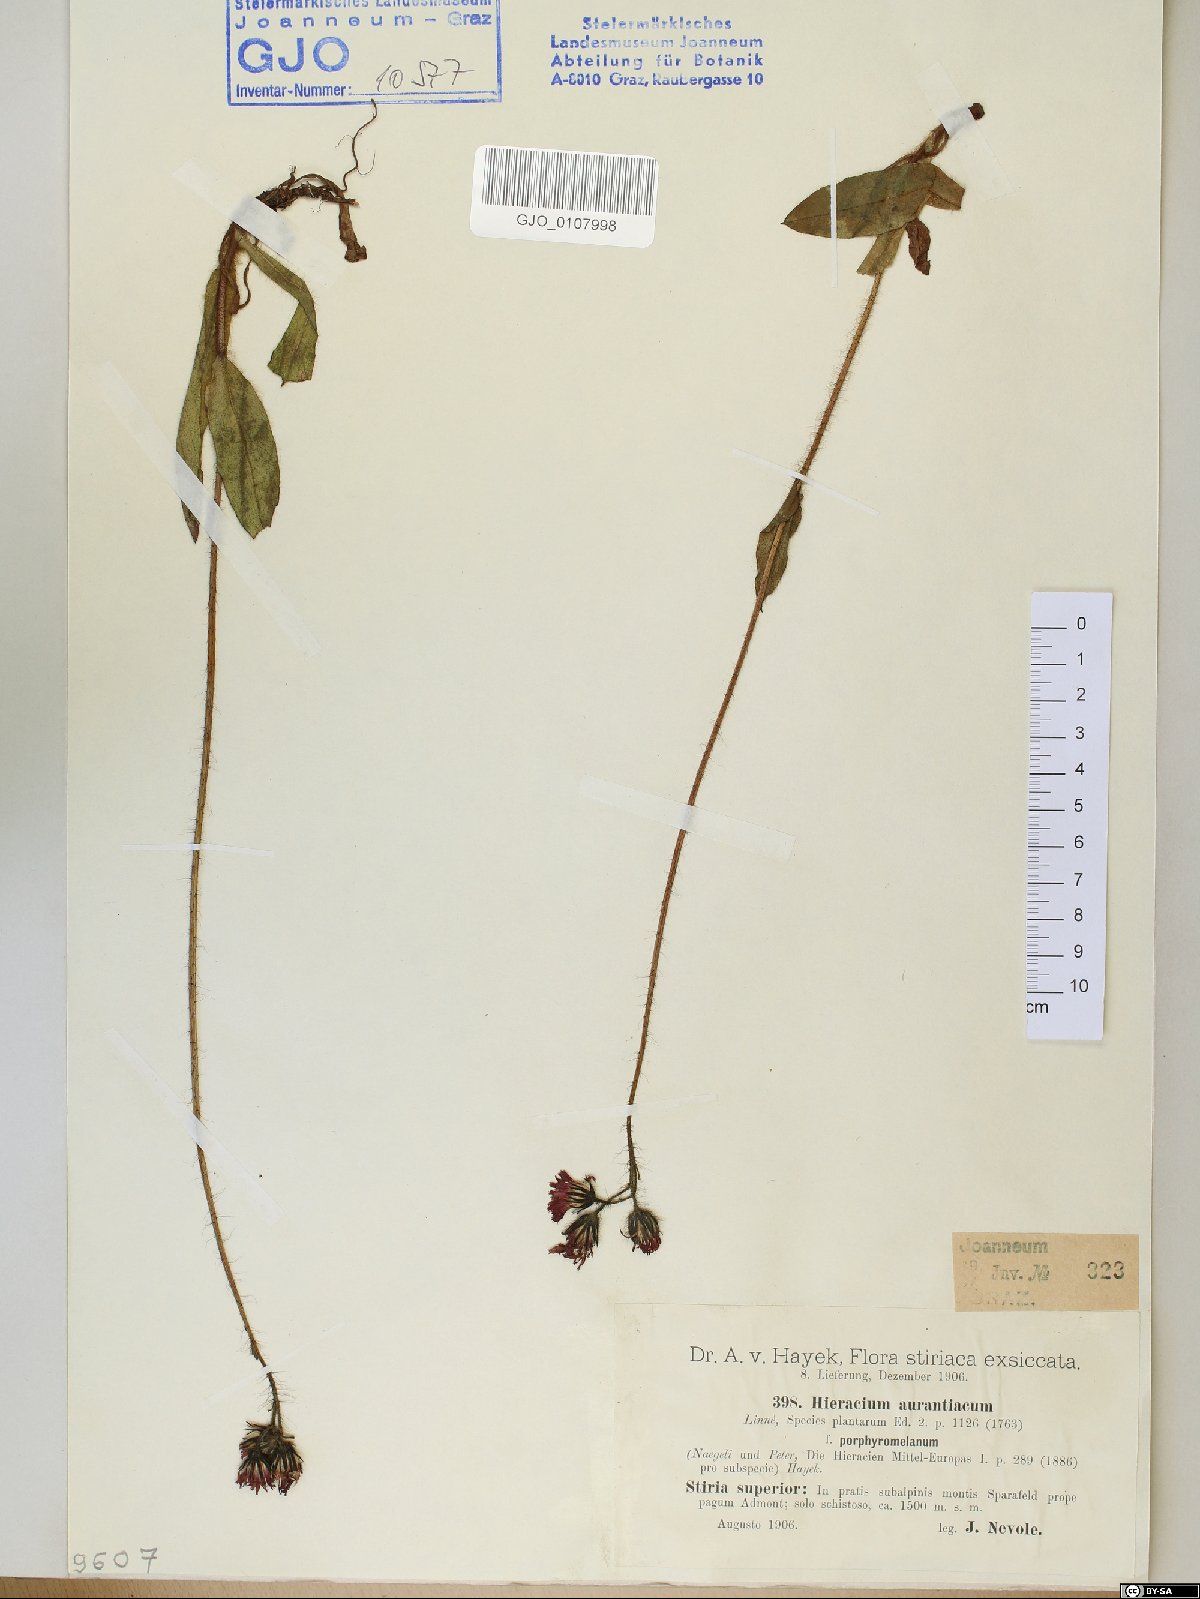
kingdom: Plantae
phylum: Tracheophyta
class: Magnoliopsida
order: Asterales
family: Asteraceae
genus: Pilosella
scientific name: Pilosella aurantiaca
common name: Fox-and-cubs
